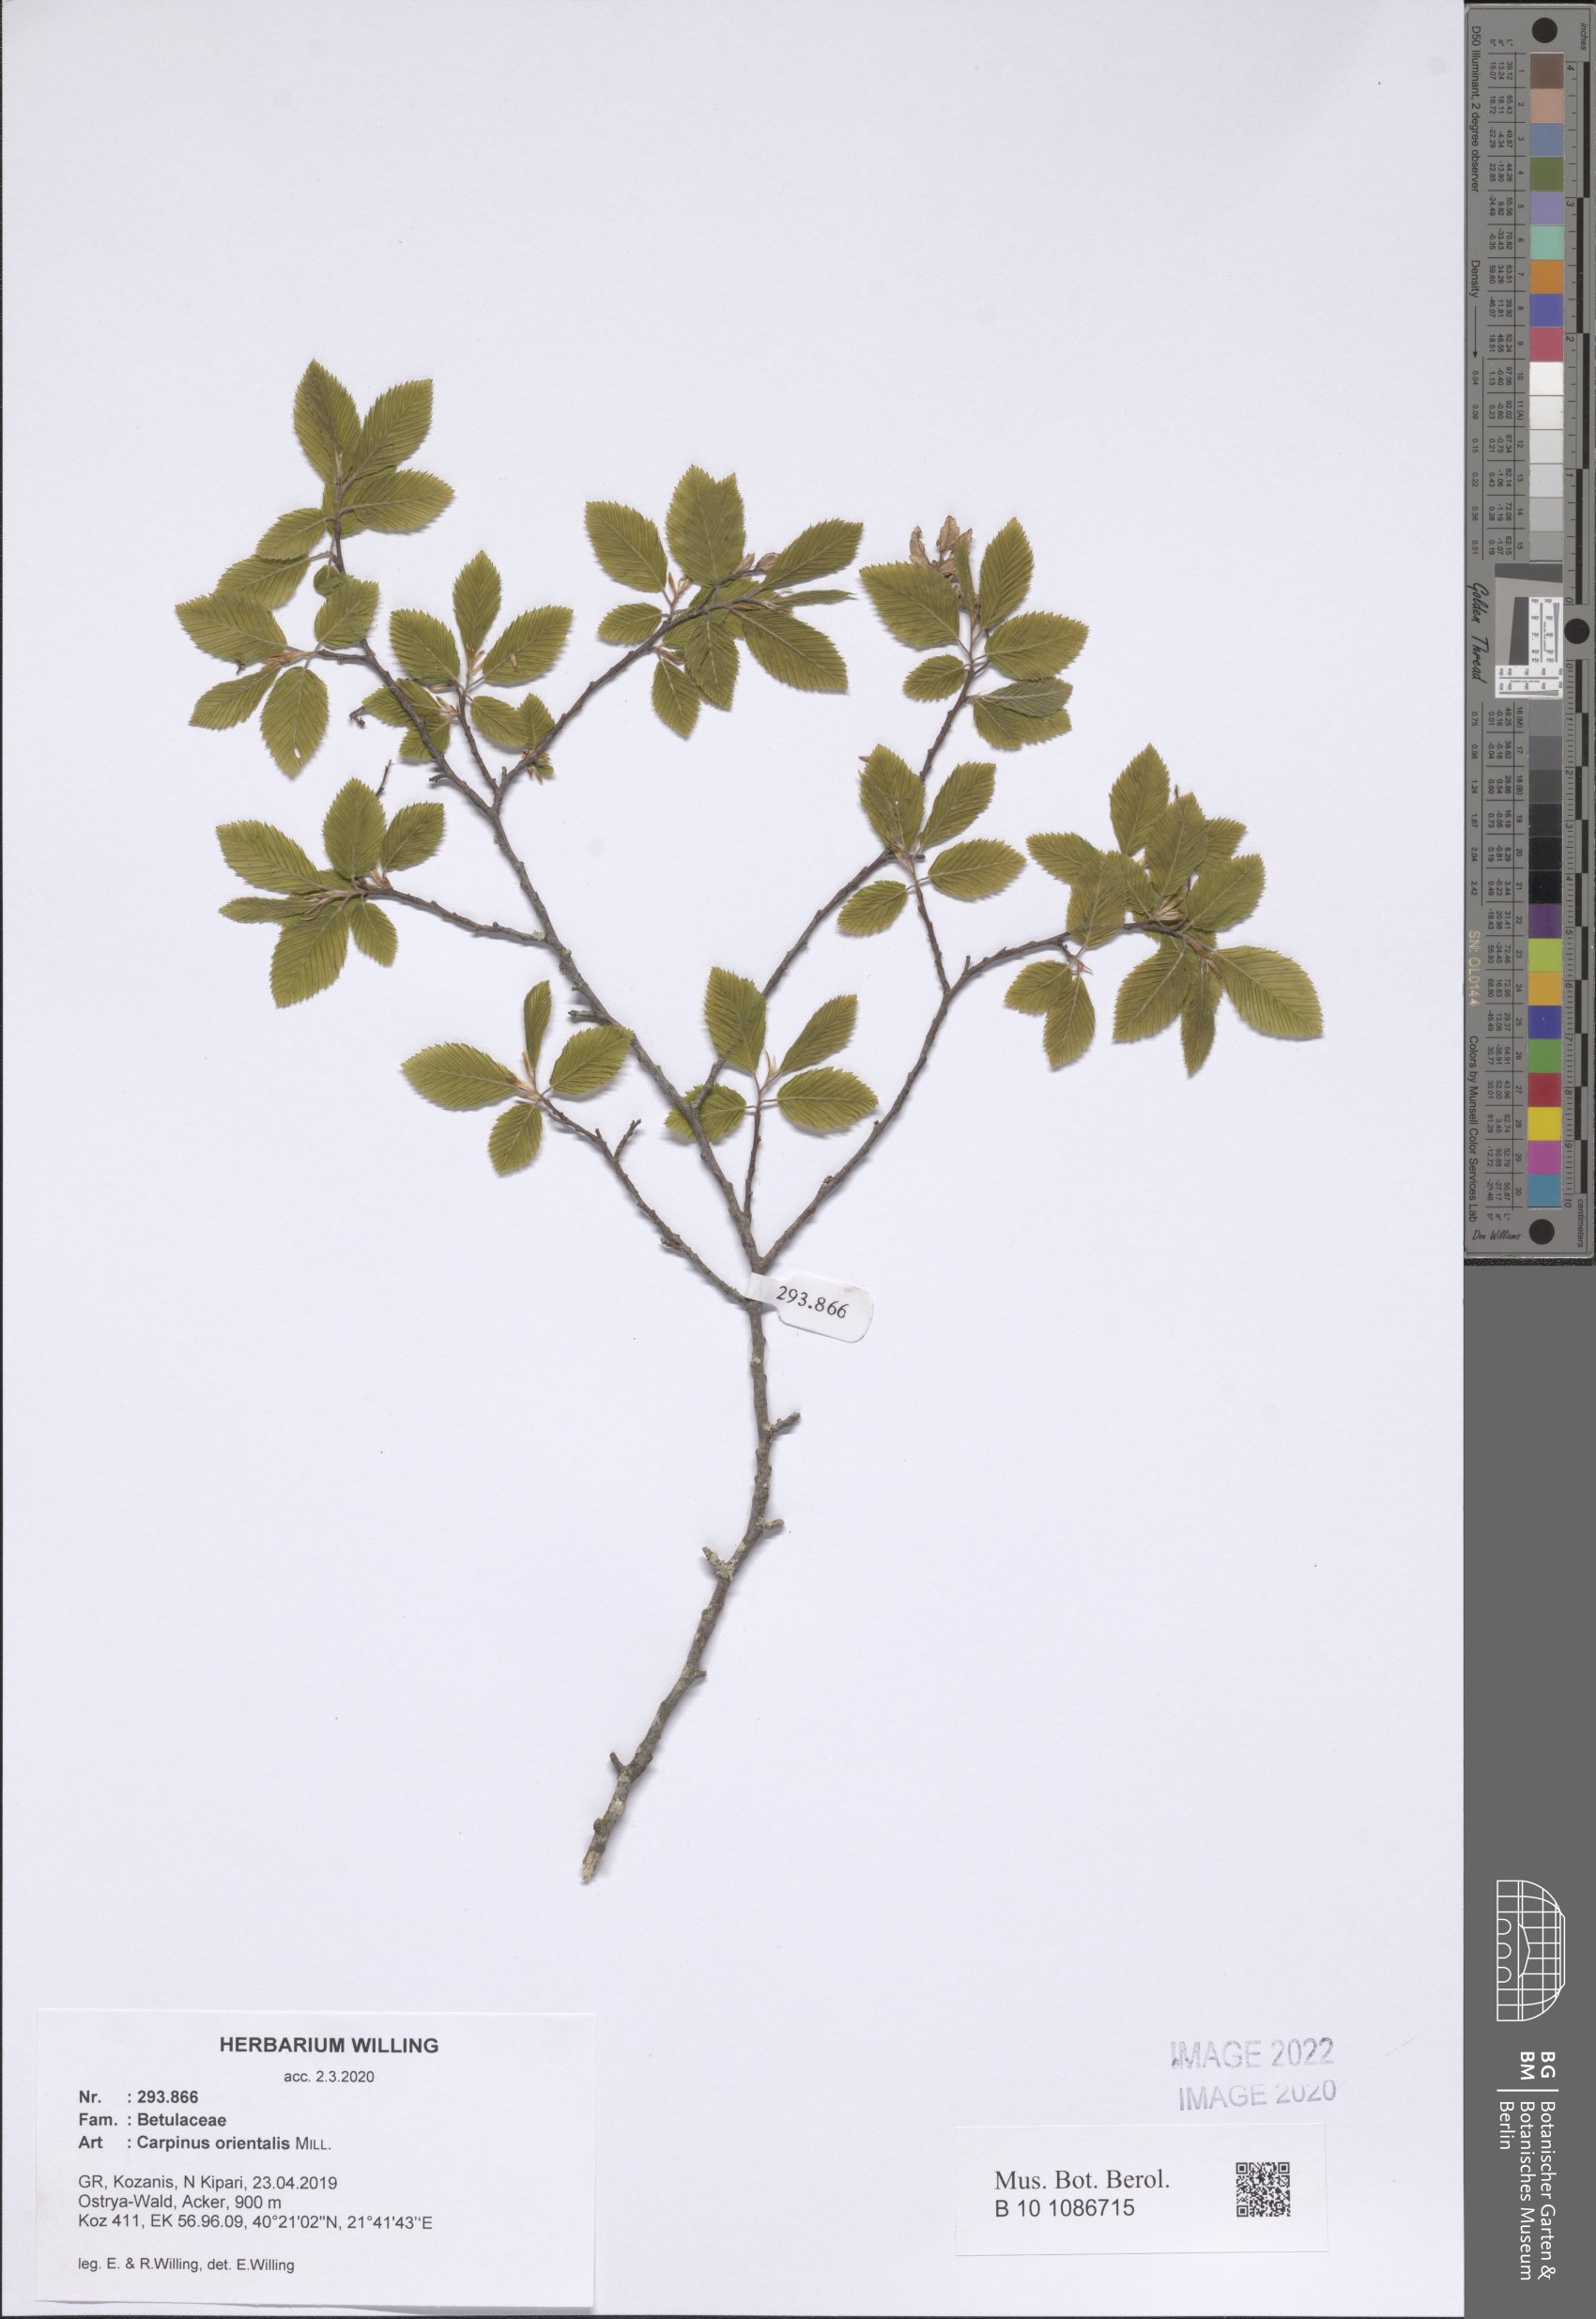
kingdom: Plantae
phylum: Tracheophyta
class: Magnoliopsida
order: Fagales
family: Betulaceae
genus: Carpinus
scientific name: Carpinus orientalis
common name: Eastern hornbeam
